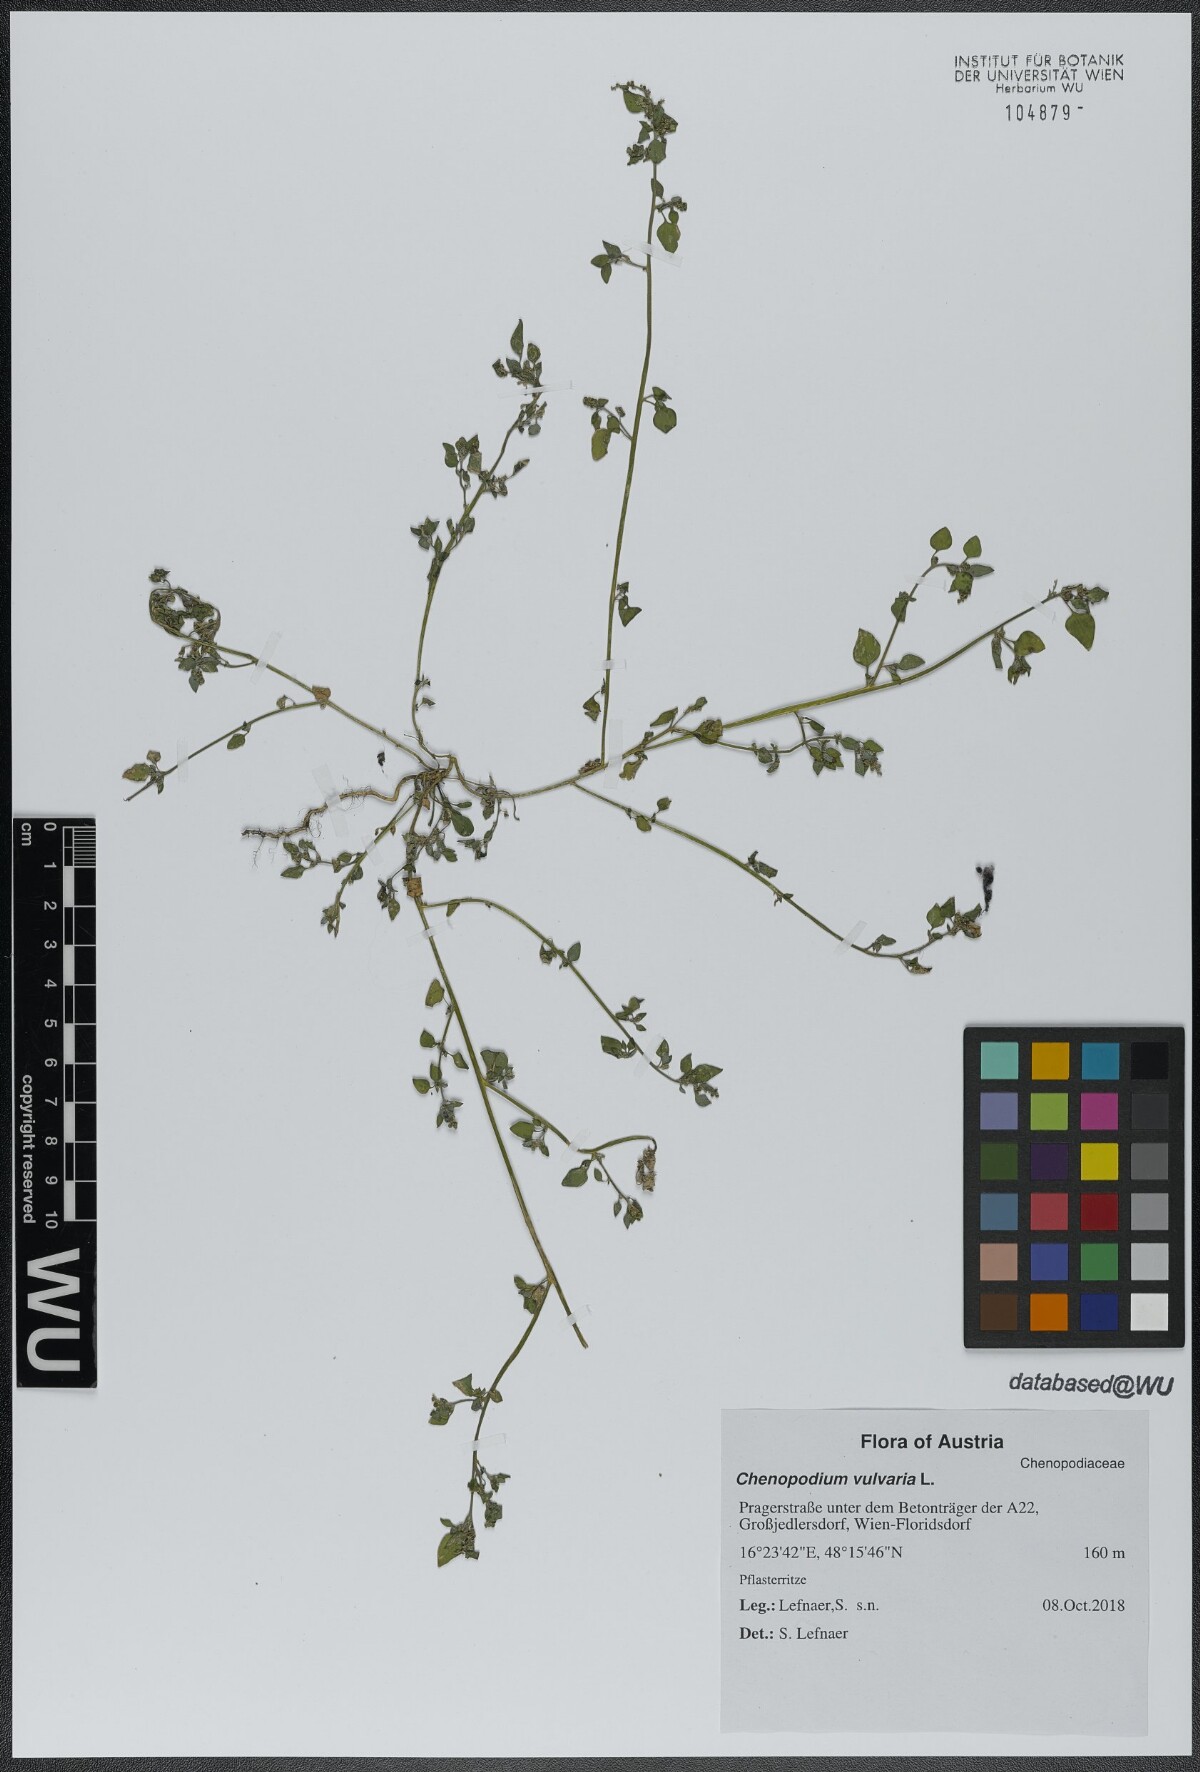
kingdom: Plantae
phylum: Tracheophyta
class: Magnoliopsida
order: Caryophyllales
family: Amaranthaceae
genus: Chenopodium
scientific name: Chenopodium vulvaria
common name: Stinking goosefoot
